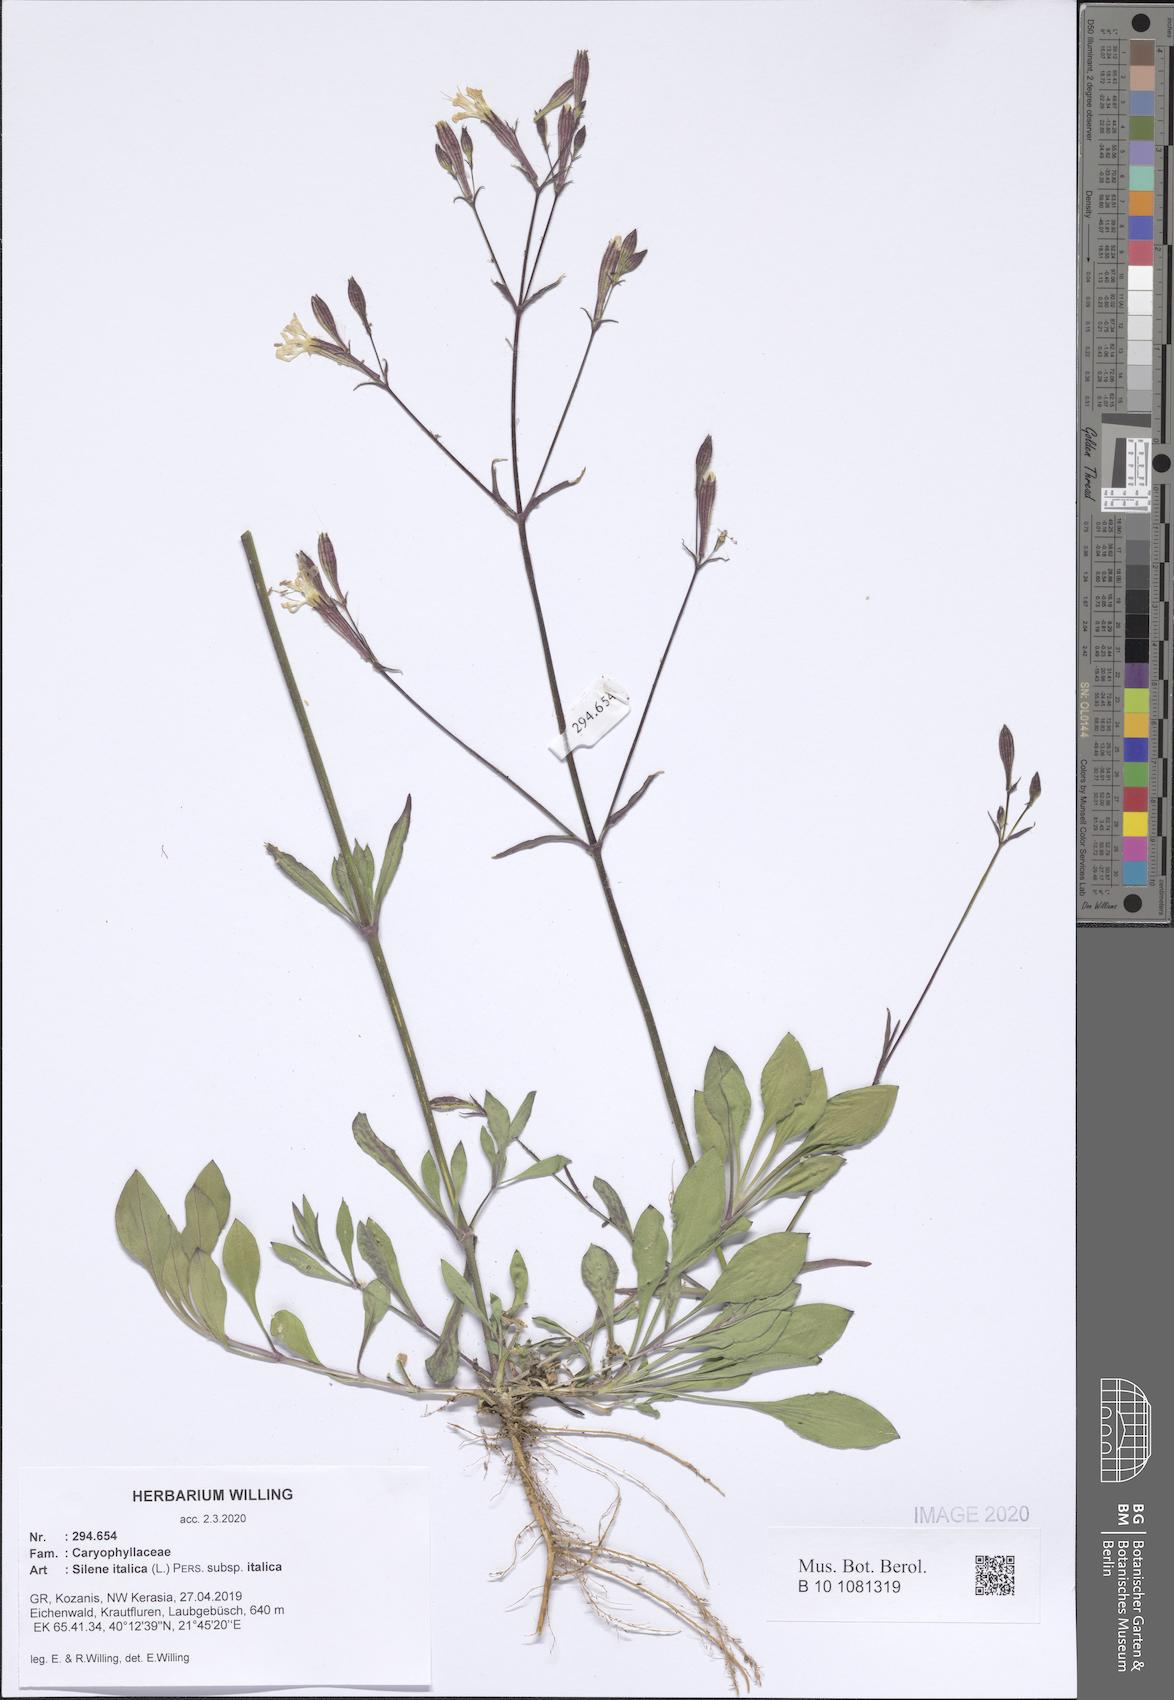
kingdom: Plantae
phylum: Tracheophyta
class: Magnoliopsida
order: Caryophyllales
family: Caryophyllaceae
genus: Silene
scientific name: Silene italica
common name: Italian catchfly
